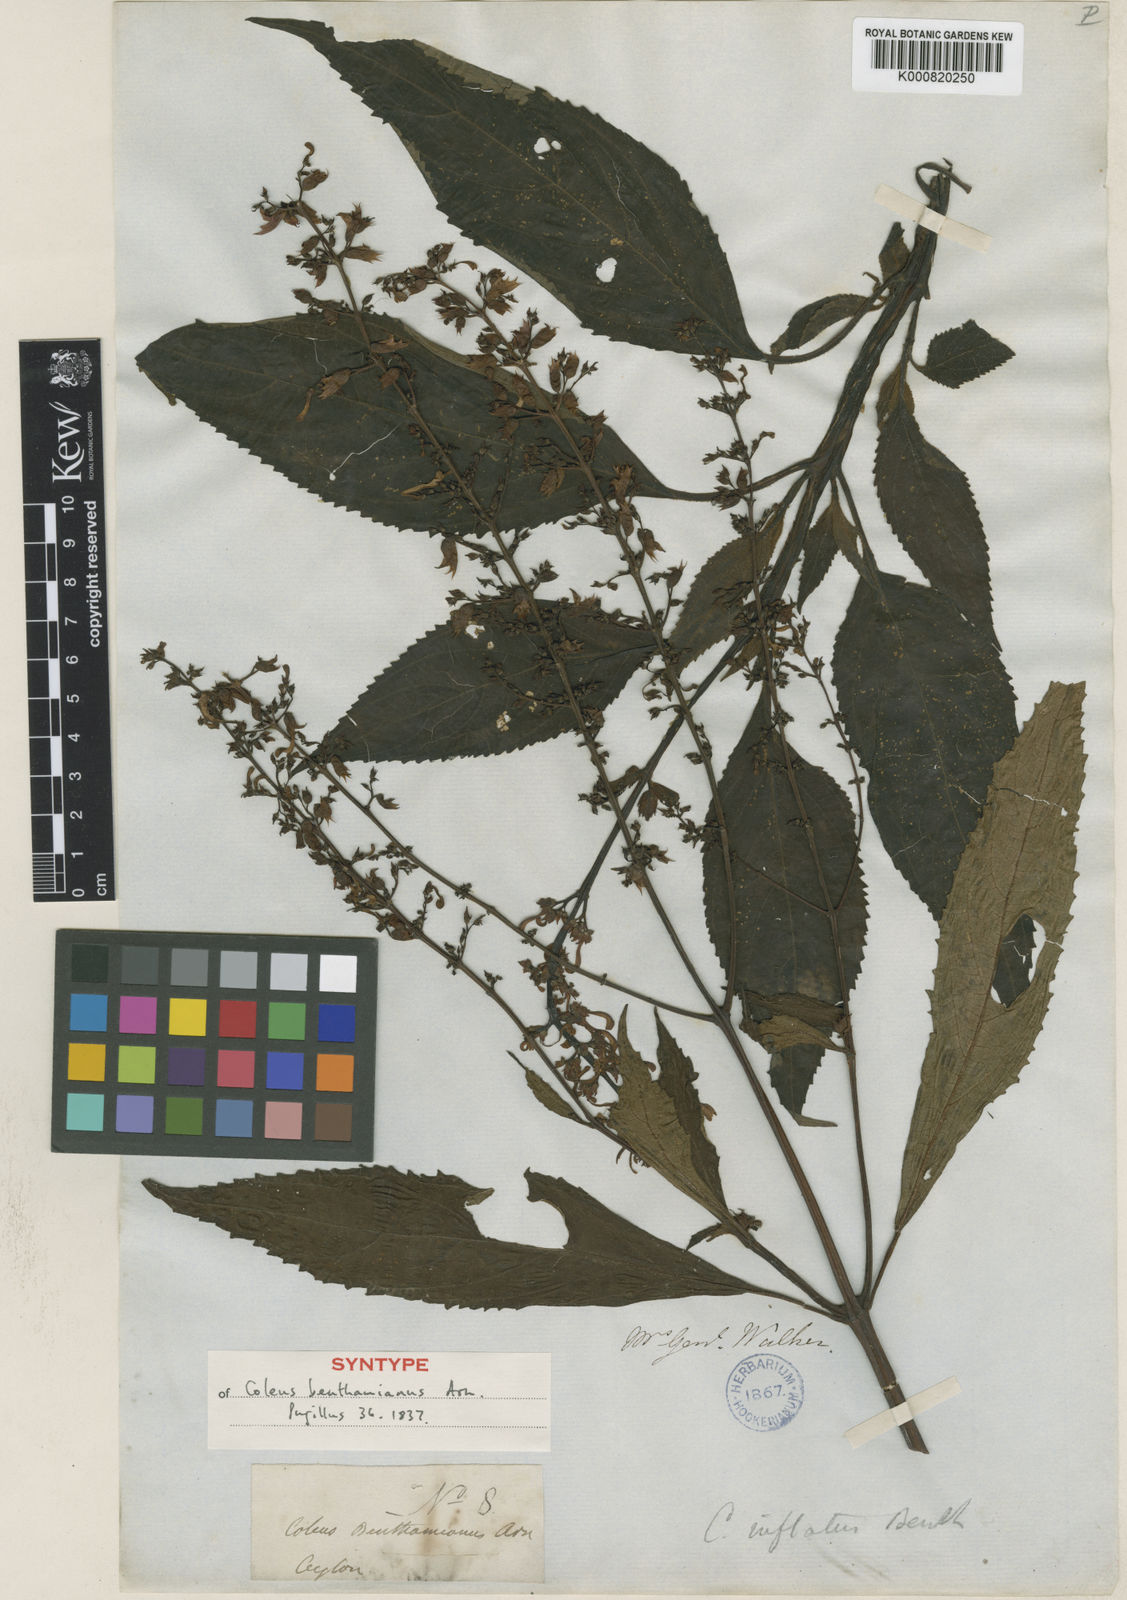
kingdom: Plantae
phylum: Tracheophyta
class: Magnoliopsida
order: Lamiales
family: Lamiaceae
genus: Coleus
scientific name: Coleus inflatus
